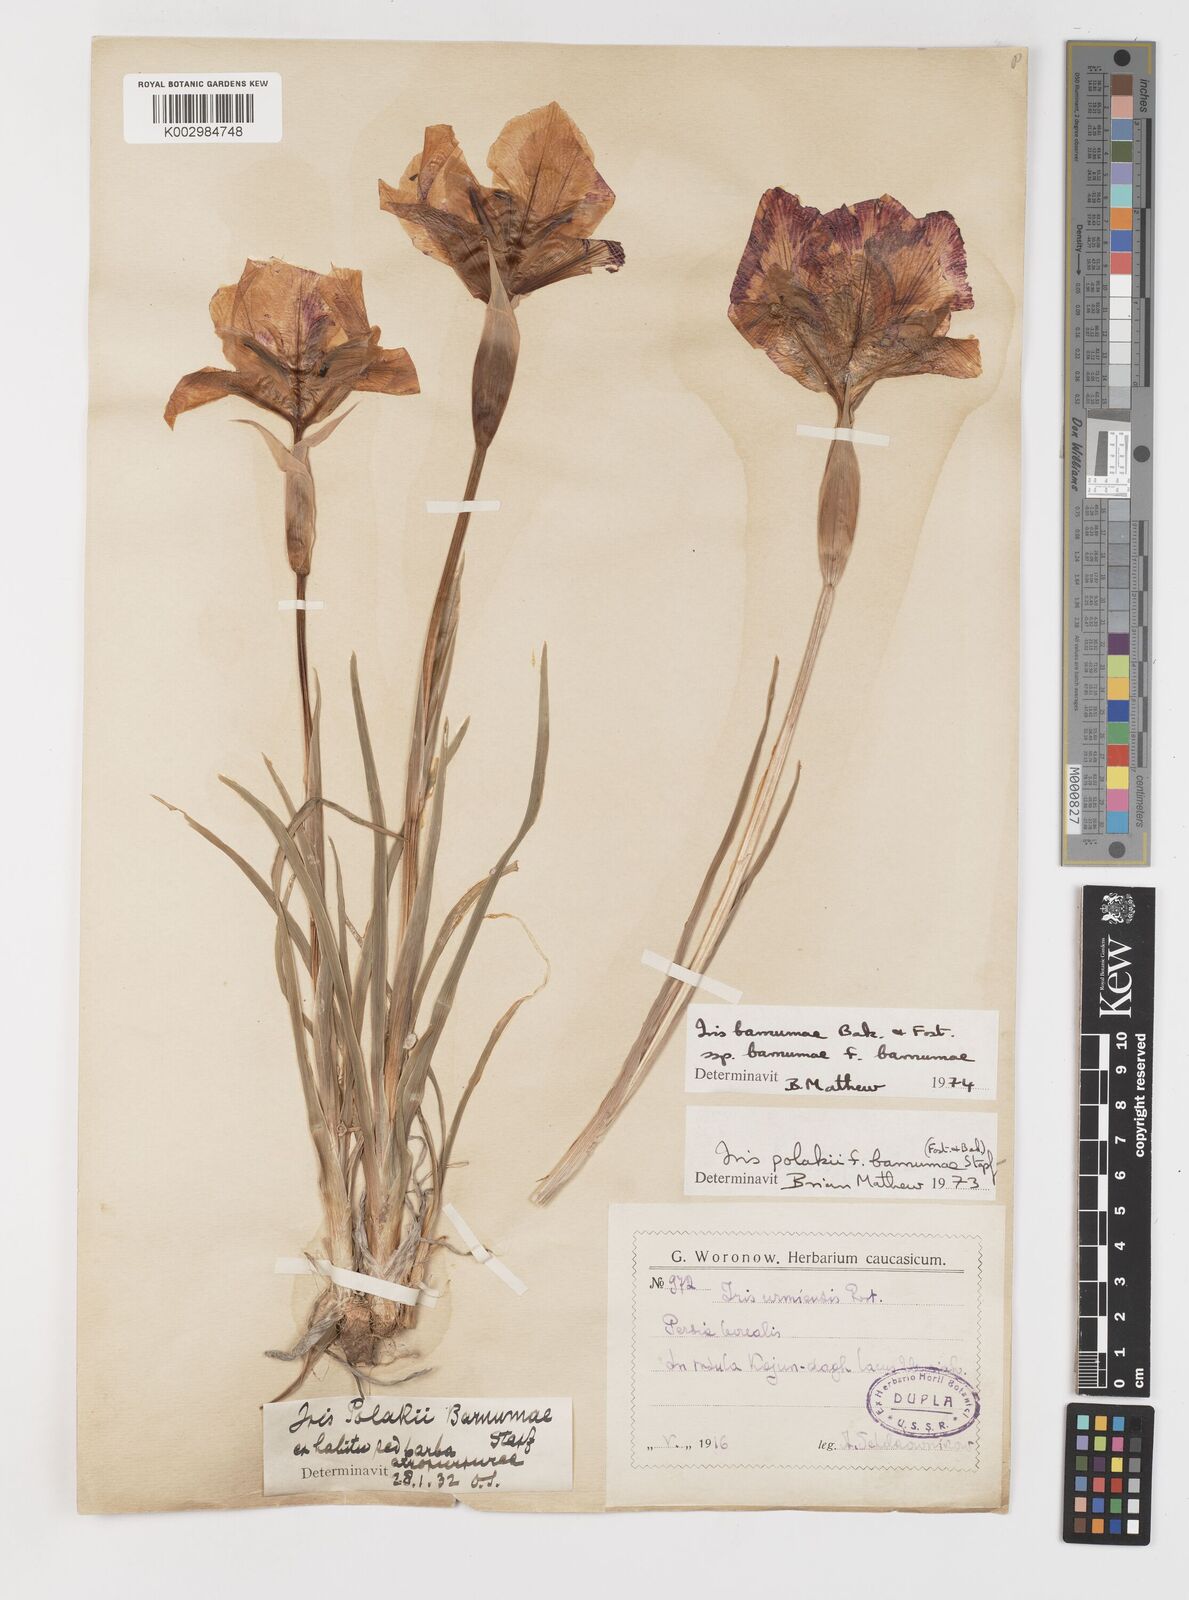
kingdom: Plantae
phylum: Tracheophyta
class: Liliopsida
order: Asparagales
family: Iridaceae
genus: Iris
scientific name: Iris barnumiae
